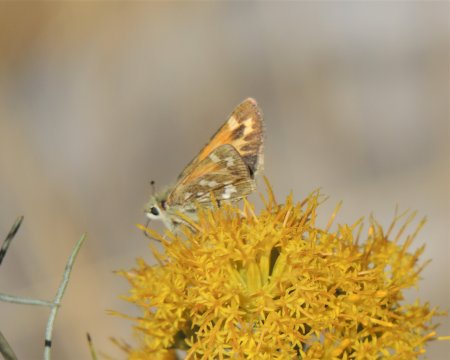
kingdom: Animalia
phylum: Arthropoda
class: Insecta
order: Lepidoptera
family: Hesperiidae
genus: Hesperia
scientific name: Hesperia juba
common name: Juba Skipper
